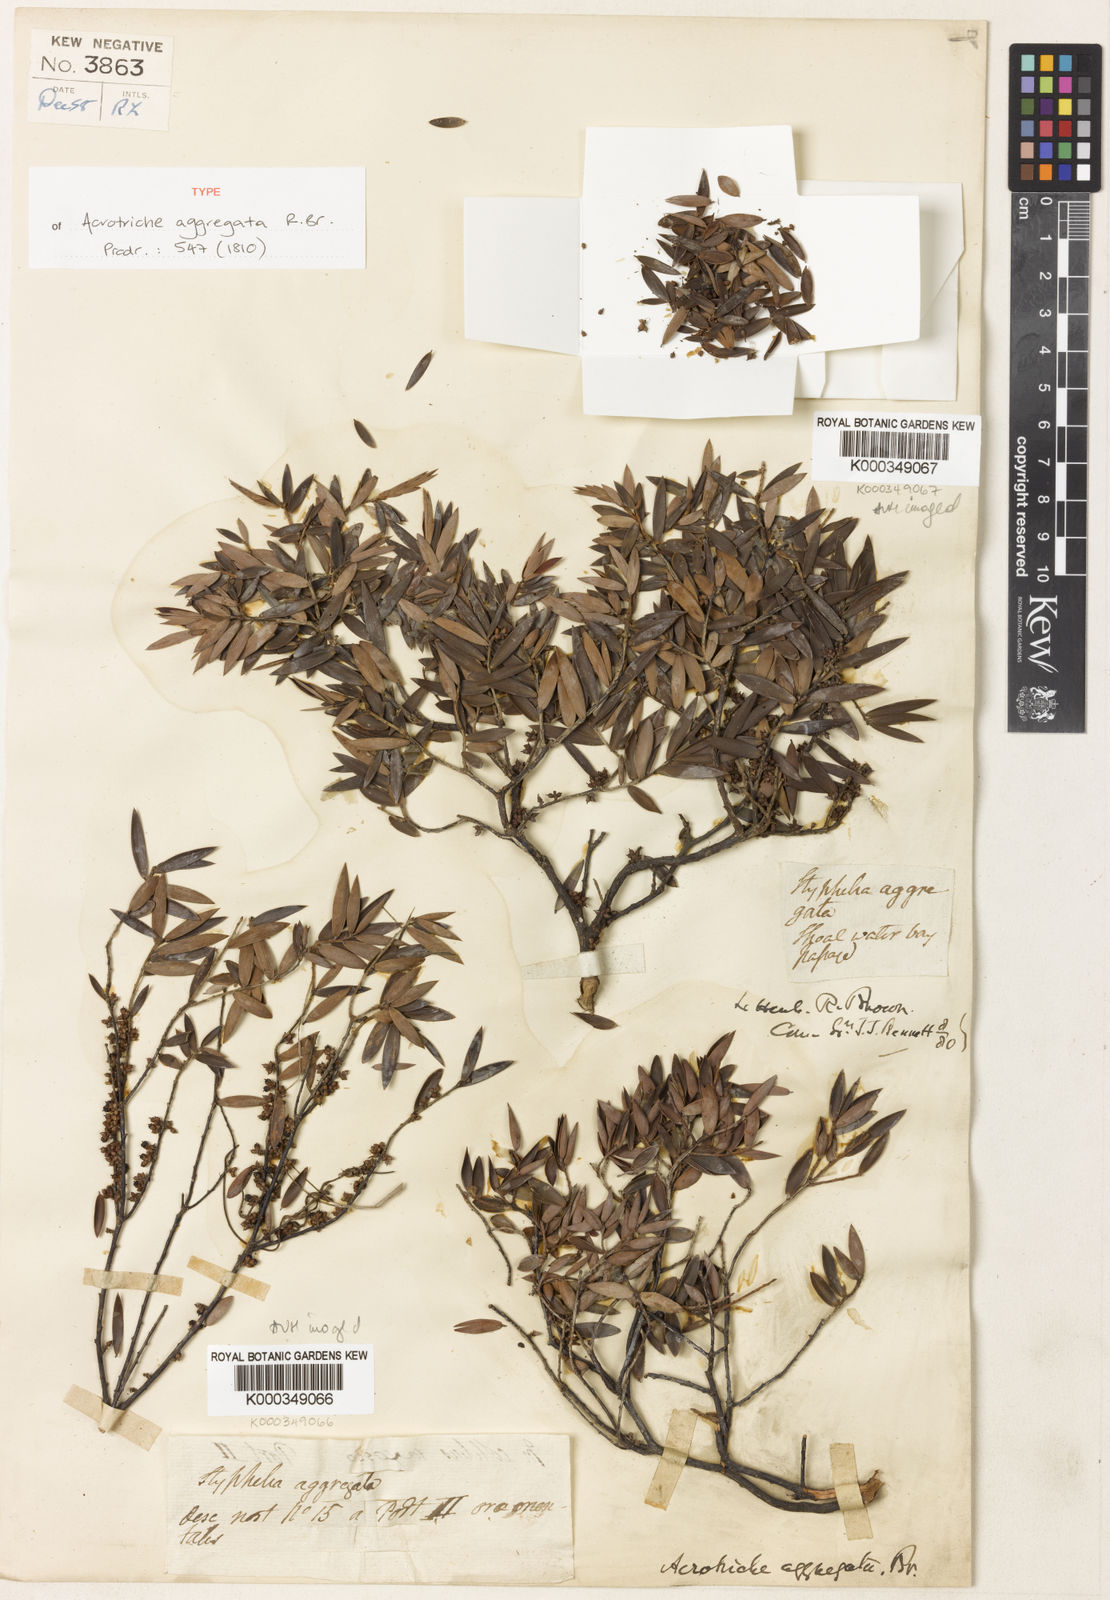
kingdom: Plantae
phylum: Tracheophyta
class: Magnoliopsida
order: Ericales
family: Ericaceae
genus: Acrotriche
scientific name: Acrotriche aggregata
